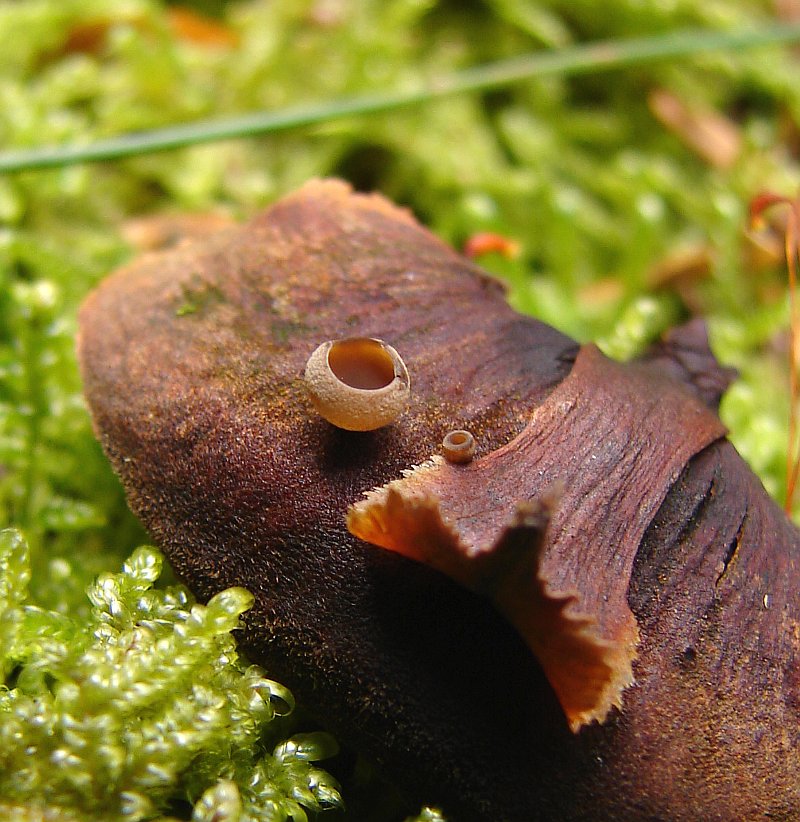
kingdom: Fungi
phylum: Ascomycota
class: Leotiomycetes
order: Helotiales
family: Sclerotiniaceae
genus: Ciboria
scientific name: Ciboria rufofusca
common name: kogleskæl-knoldskive
